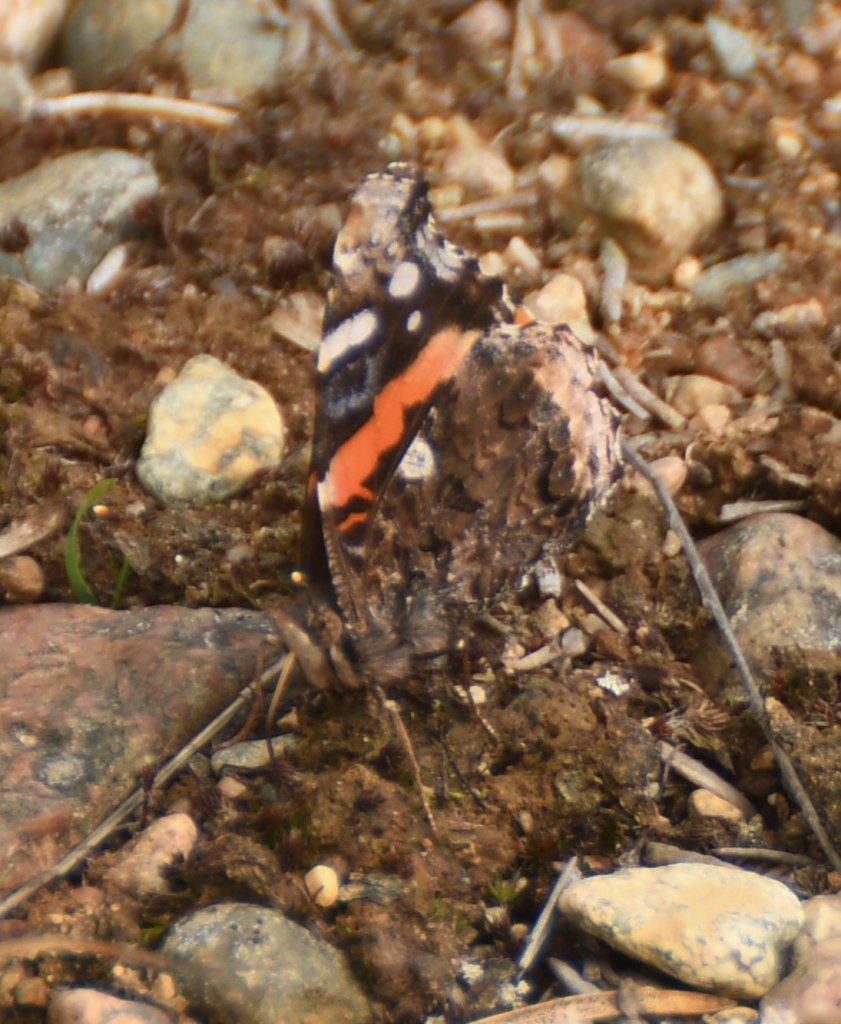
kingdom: Animalia
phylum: Arthropoda
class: Insecta
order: Lepidoptera
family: Nymphalidae
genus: Vanessa
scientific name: Vanessa atalanta
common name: Red Admiral
